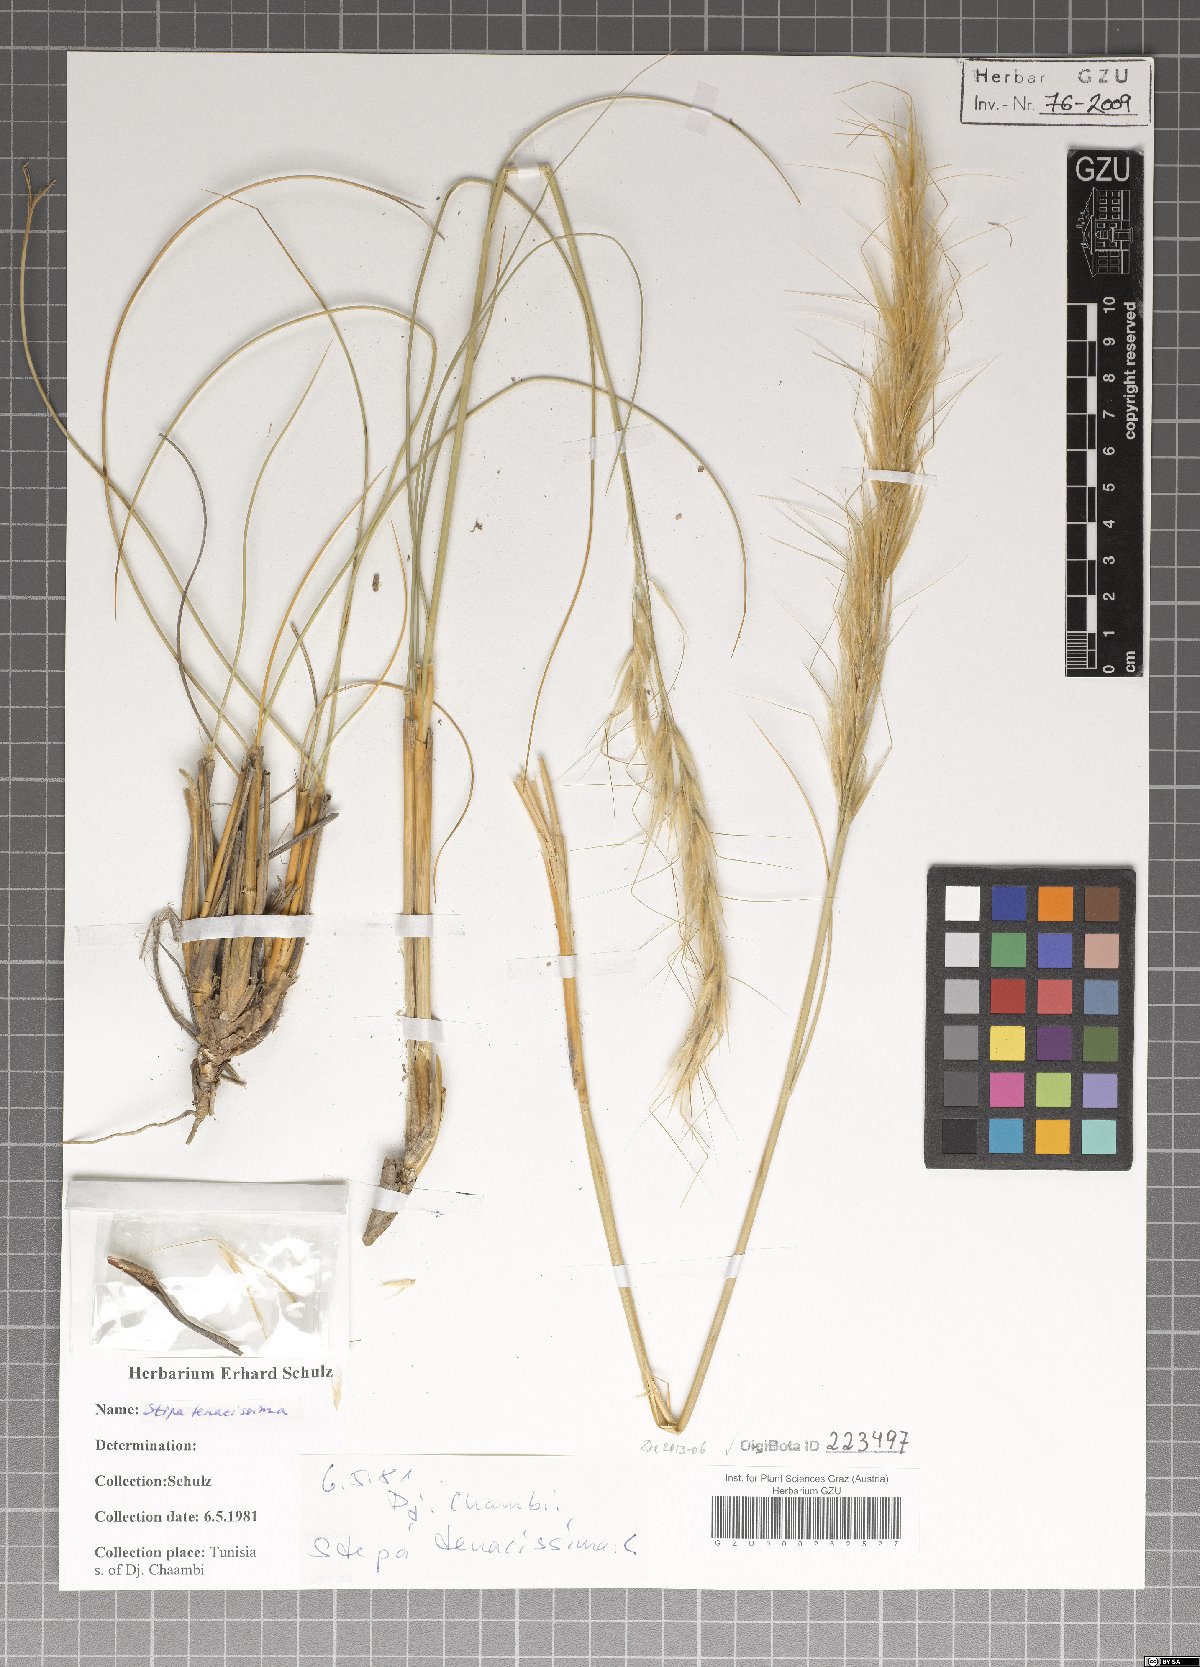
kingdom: Plantae
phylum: Tracheophyta
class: Liliopsida
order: Poales
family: Poaceae
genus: Macrochloa
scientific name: Macrochloa tenacissima
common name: Alfa grass
